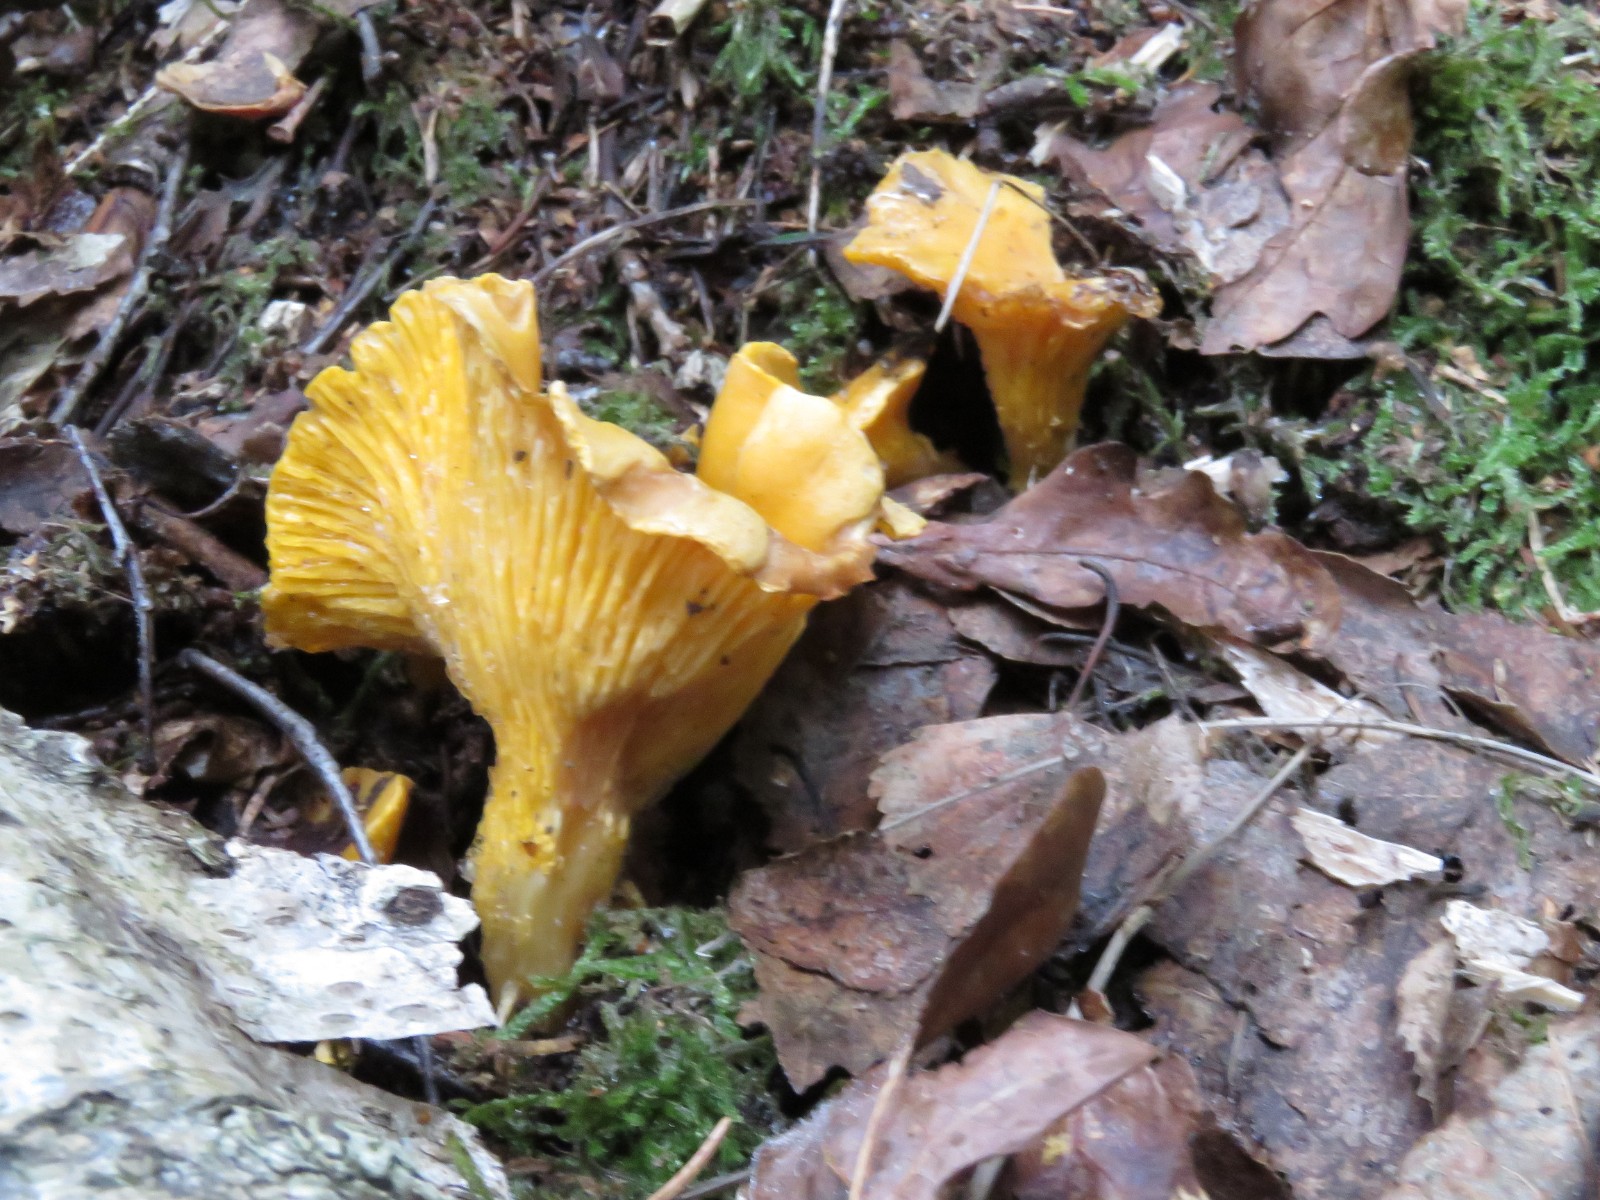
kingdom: Fungi
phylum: Basidiomycota
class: Agaricomycetes
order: Cantharellales
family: Hydnaceae
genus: Cantharellus
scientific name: Cantharellus cibarius
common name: almindelig kantarel
